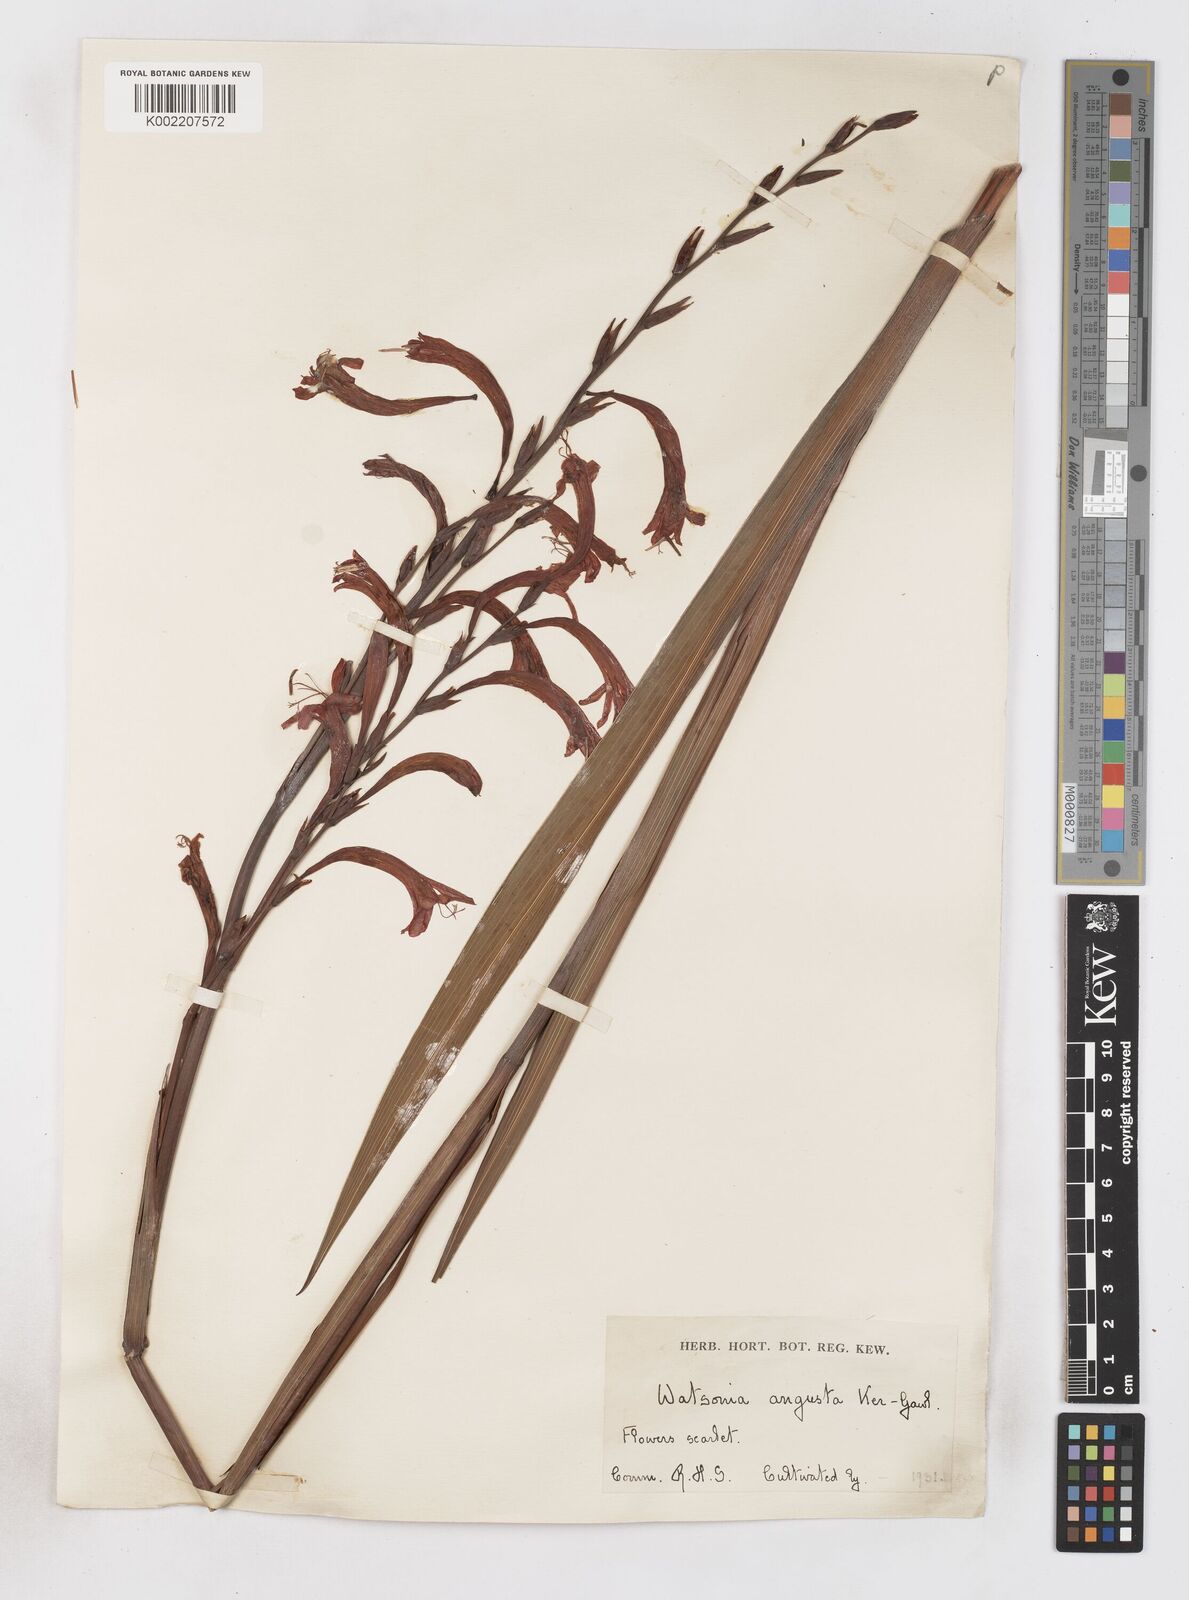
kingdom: Plantae
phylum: Tracheophyta
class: Liliopsida
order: Asparagales
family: Iridaceae
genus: Watsonia
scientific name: Watsonia angusta
